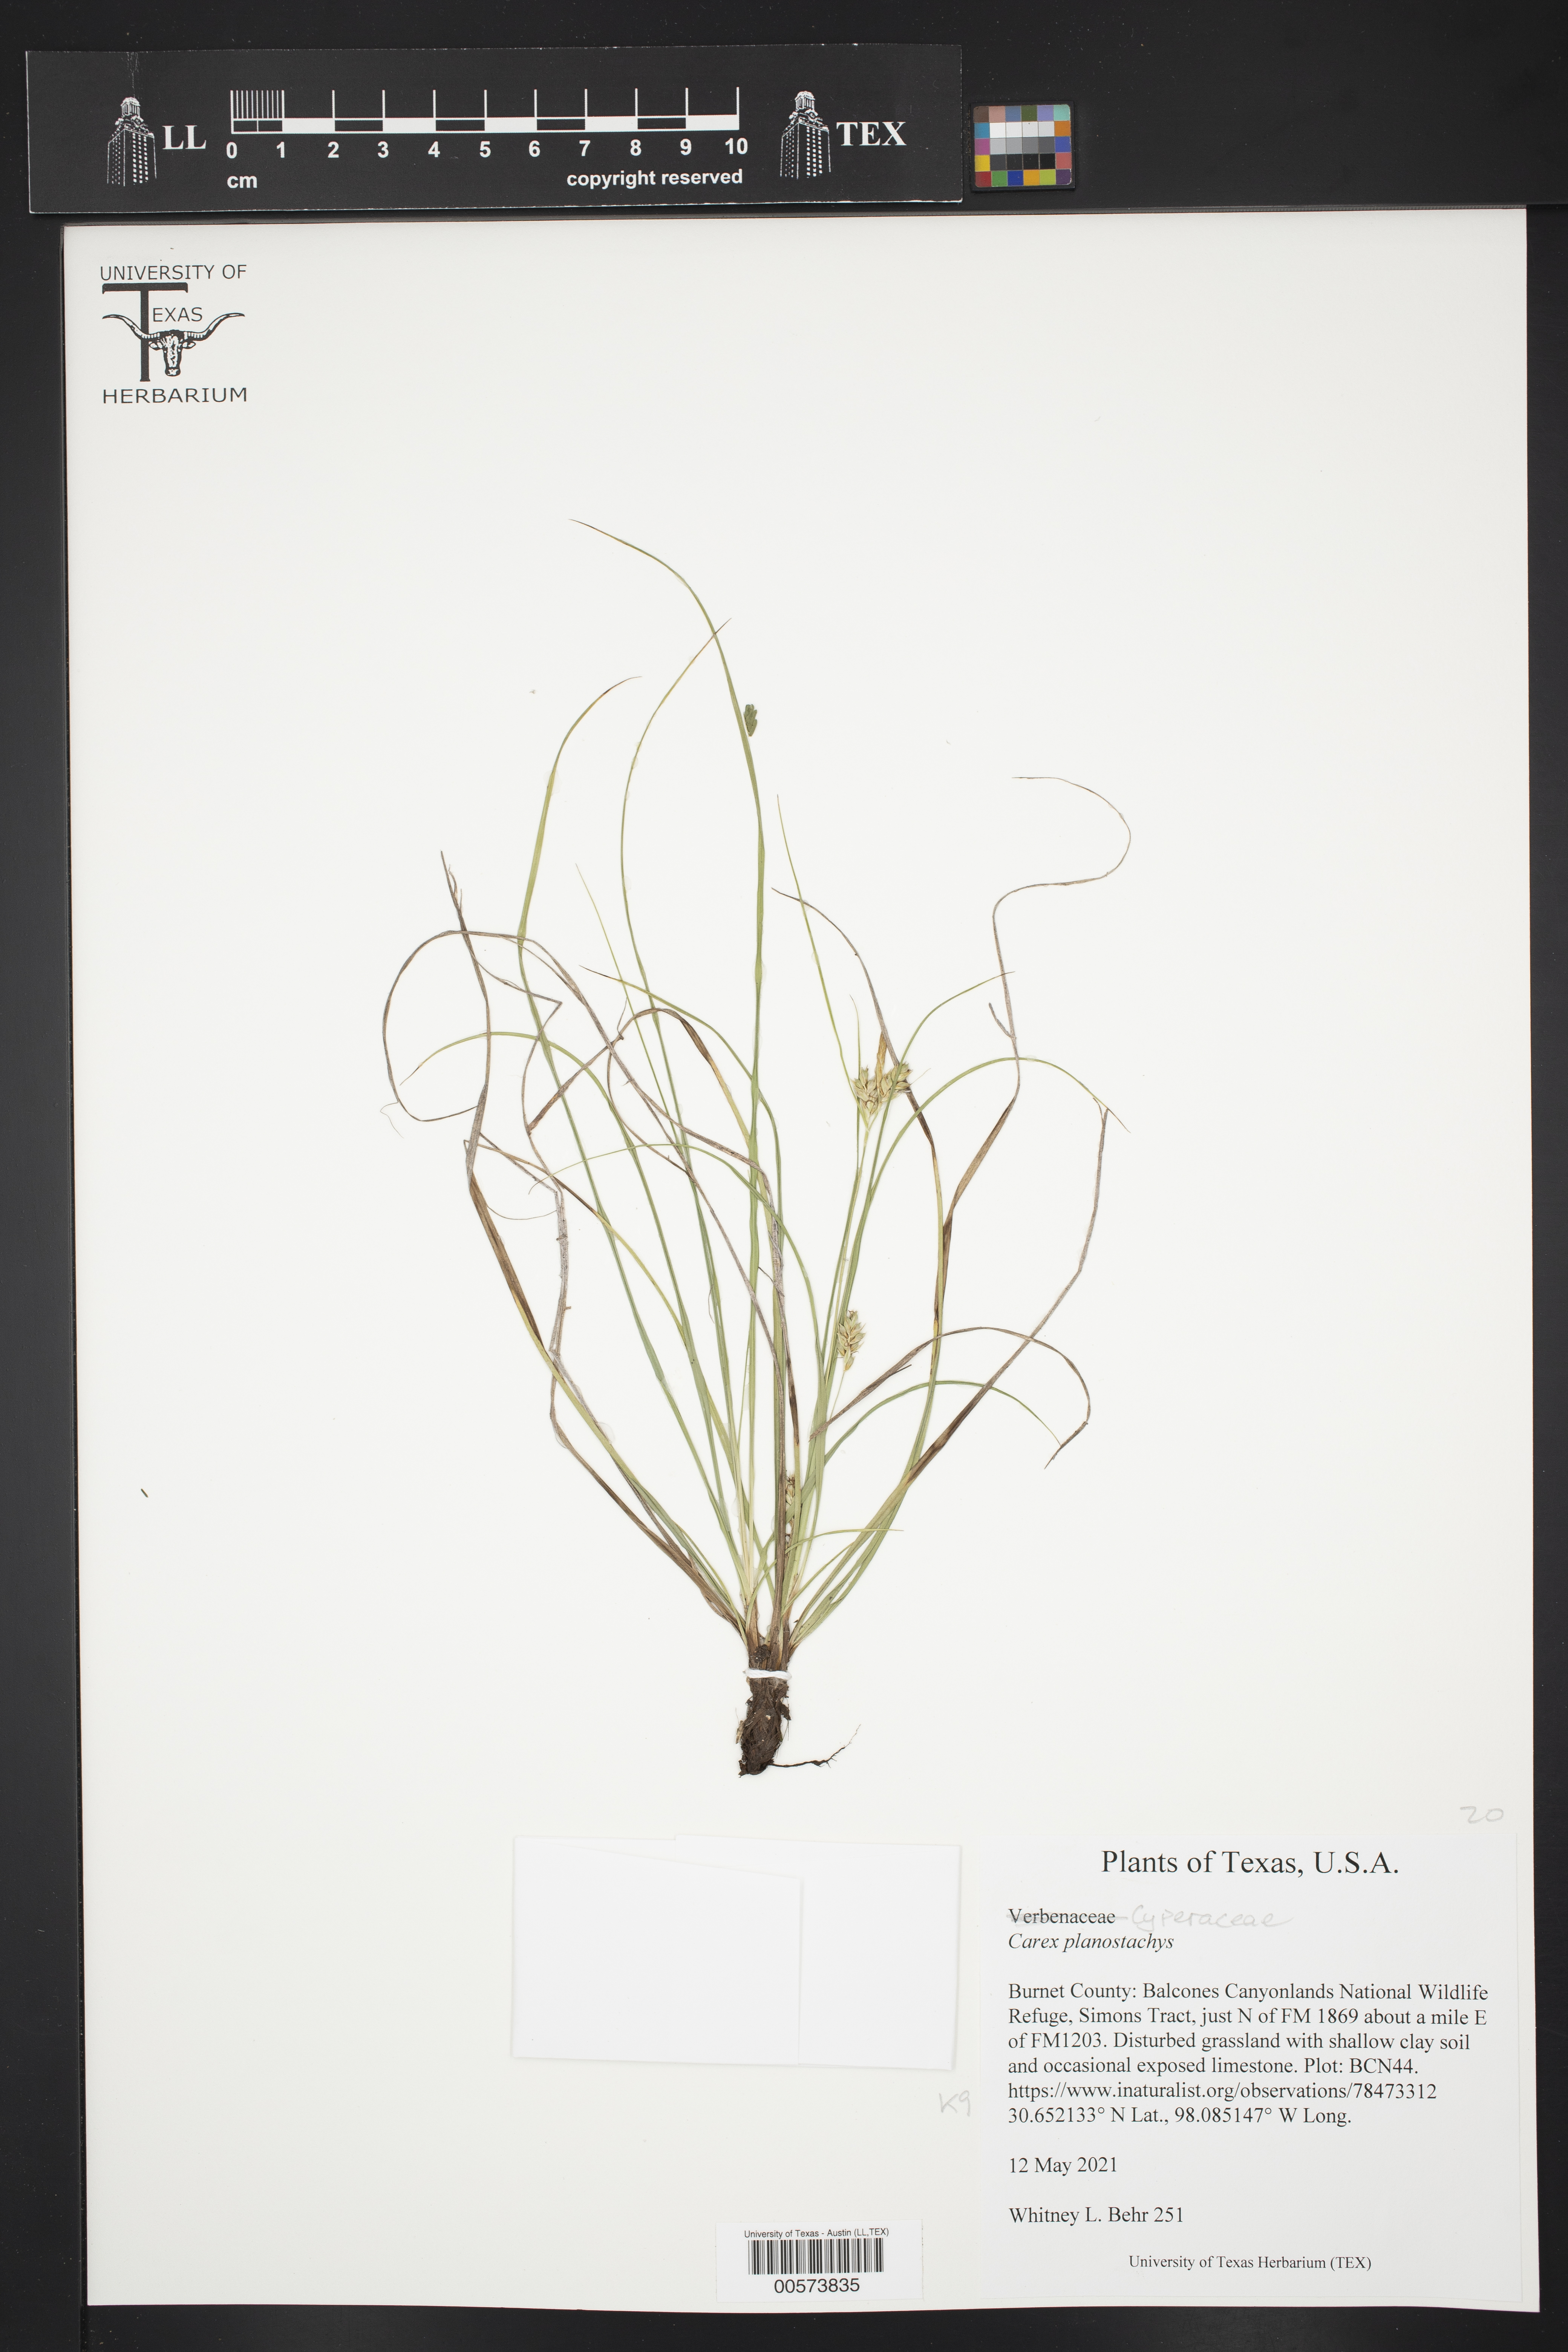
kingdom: Plantae
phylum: Tracheophyta
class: Liliopsida
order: Poales
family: Cyperaceae
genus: Carex
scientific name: Carex planostachys
